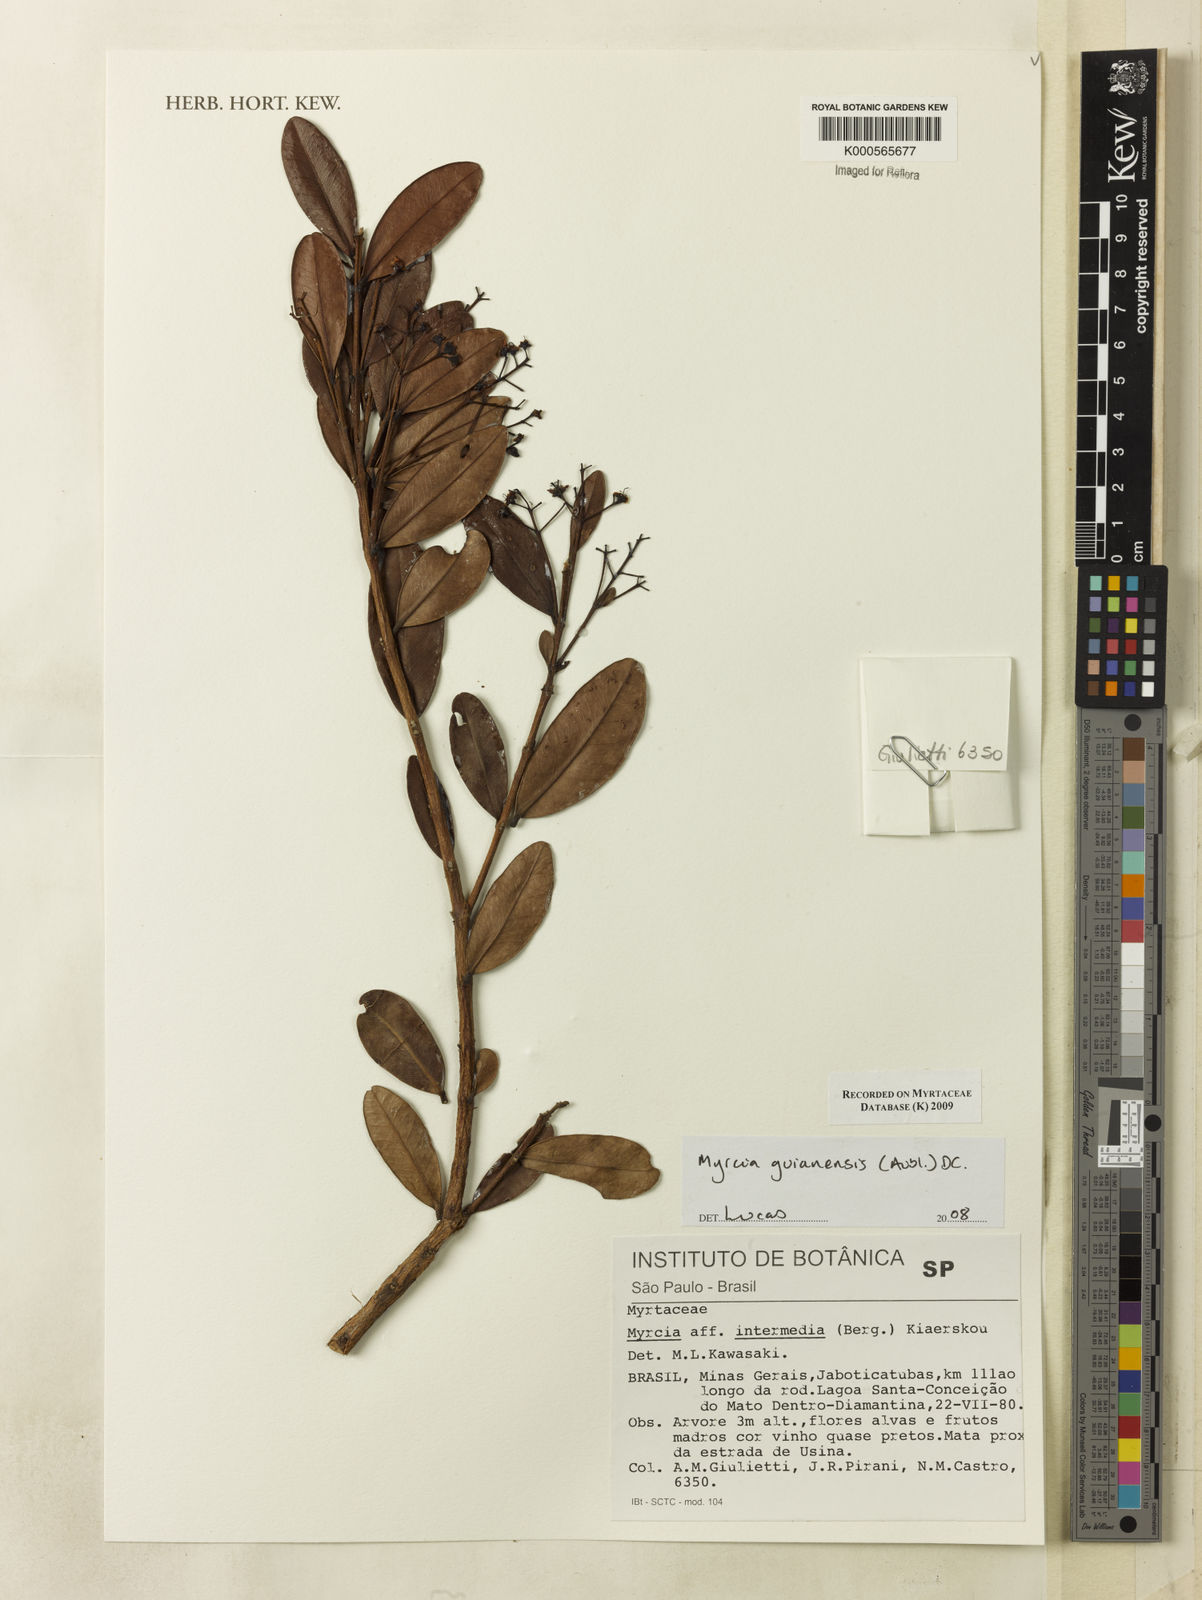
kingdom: Plantae
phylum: Tracheophyta
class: Magnoliopsida
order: Myrtales
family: Myrtaceae
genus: Myrcia
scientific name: Myrcia guianensis
